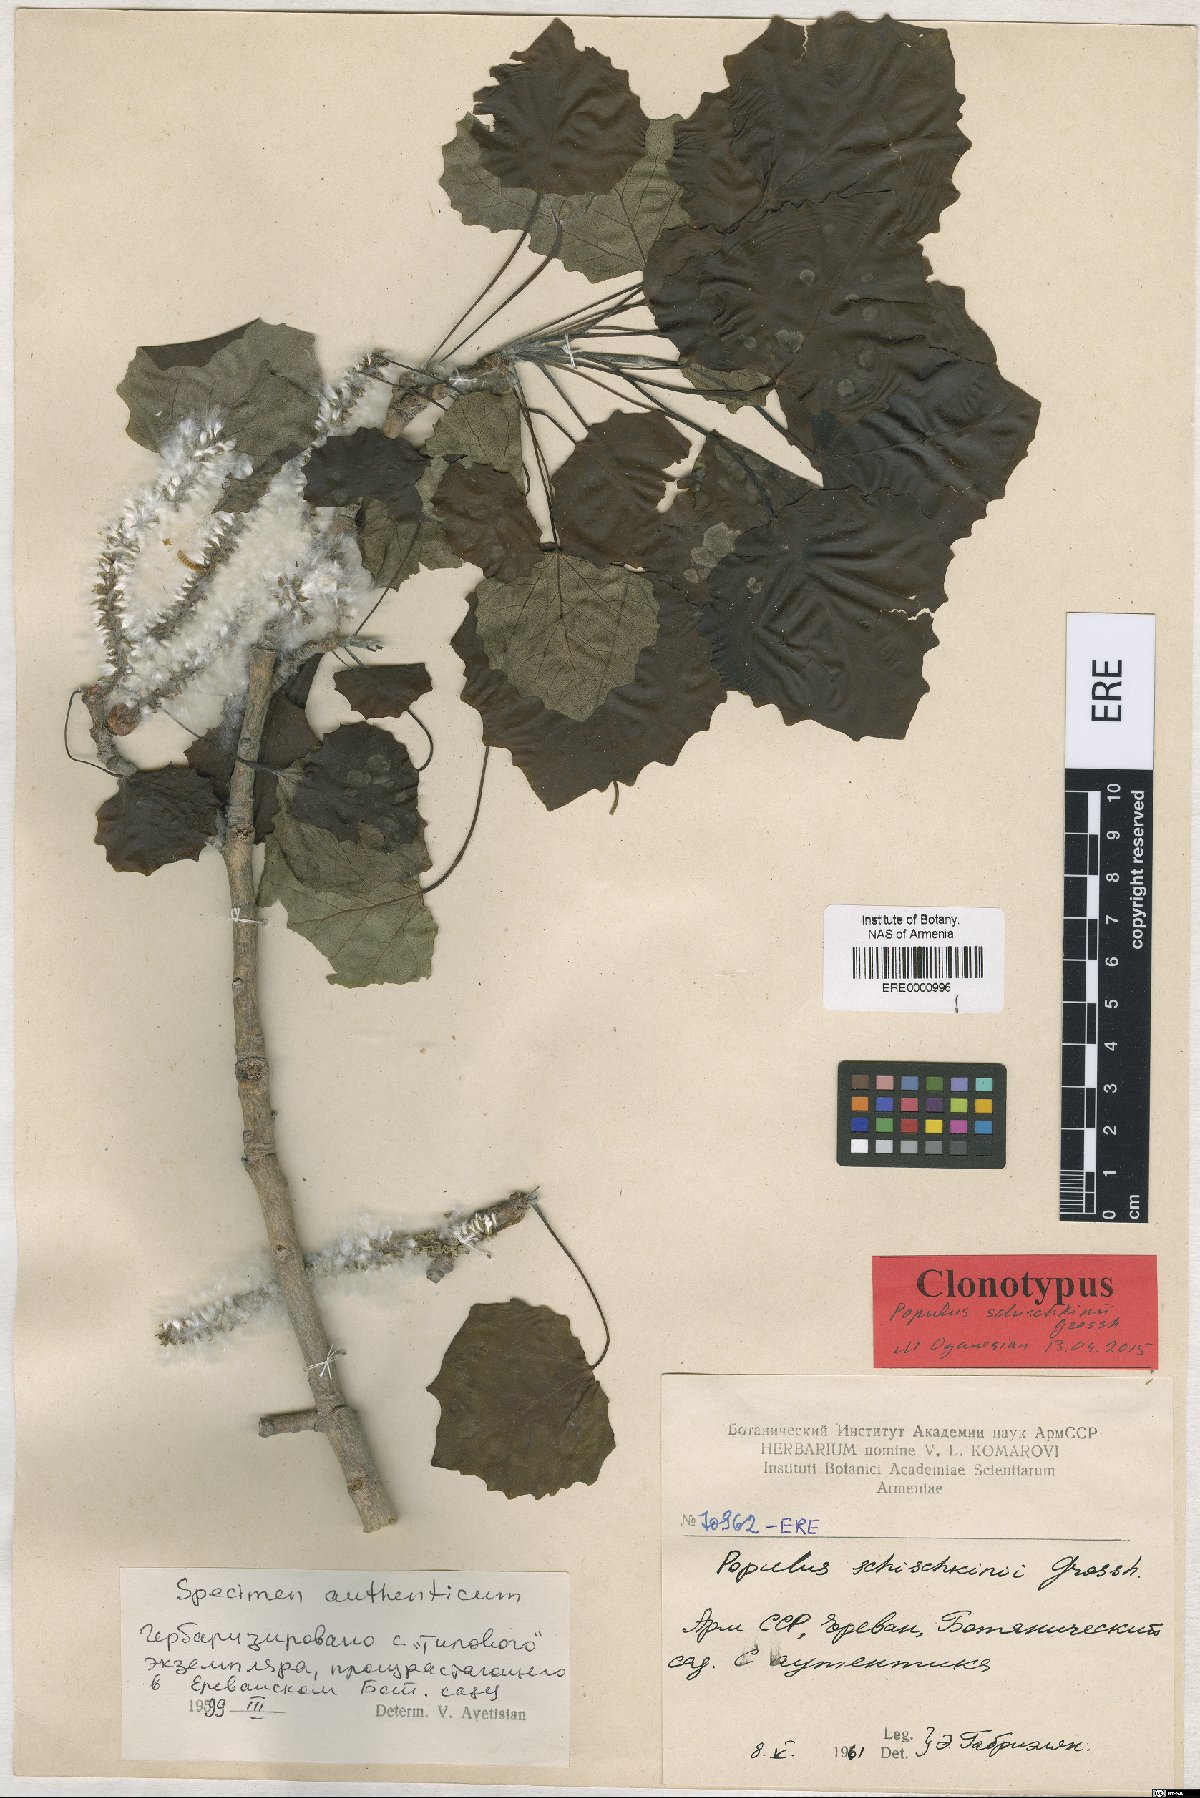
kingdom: Plantae
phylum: Tracheophyta
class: Magnoliopsida
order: Malpighiales
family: Salicaceae
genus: Populus
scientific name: Populus canescens
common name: Gray poplar
